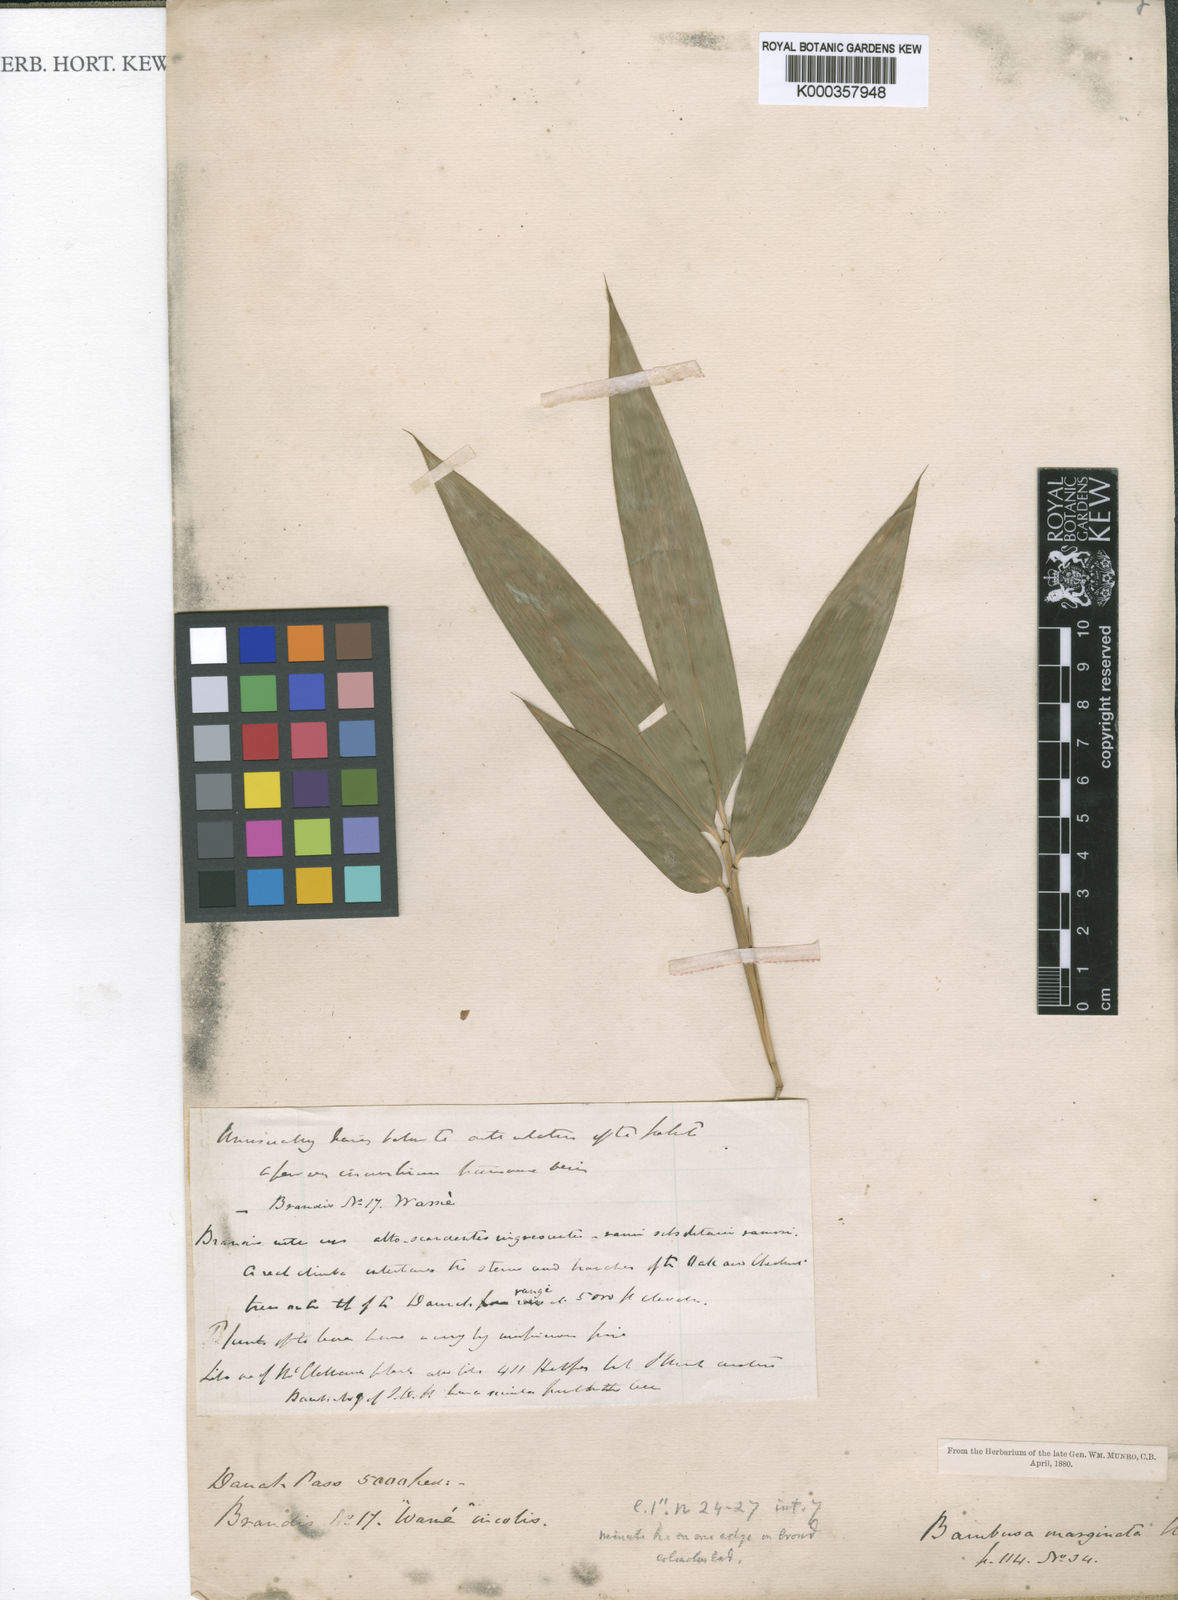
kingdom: Plantae
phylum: Tracheophyta
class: Liliopsida
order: Poales
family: Poaceae
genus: Bambusa
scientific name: Bambusa marginata
